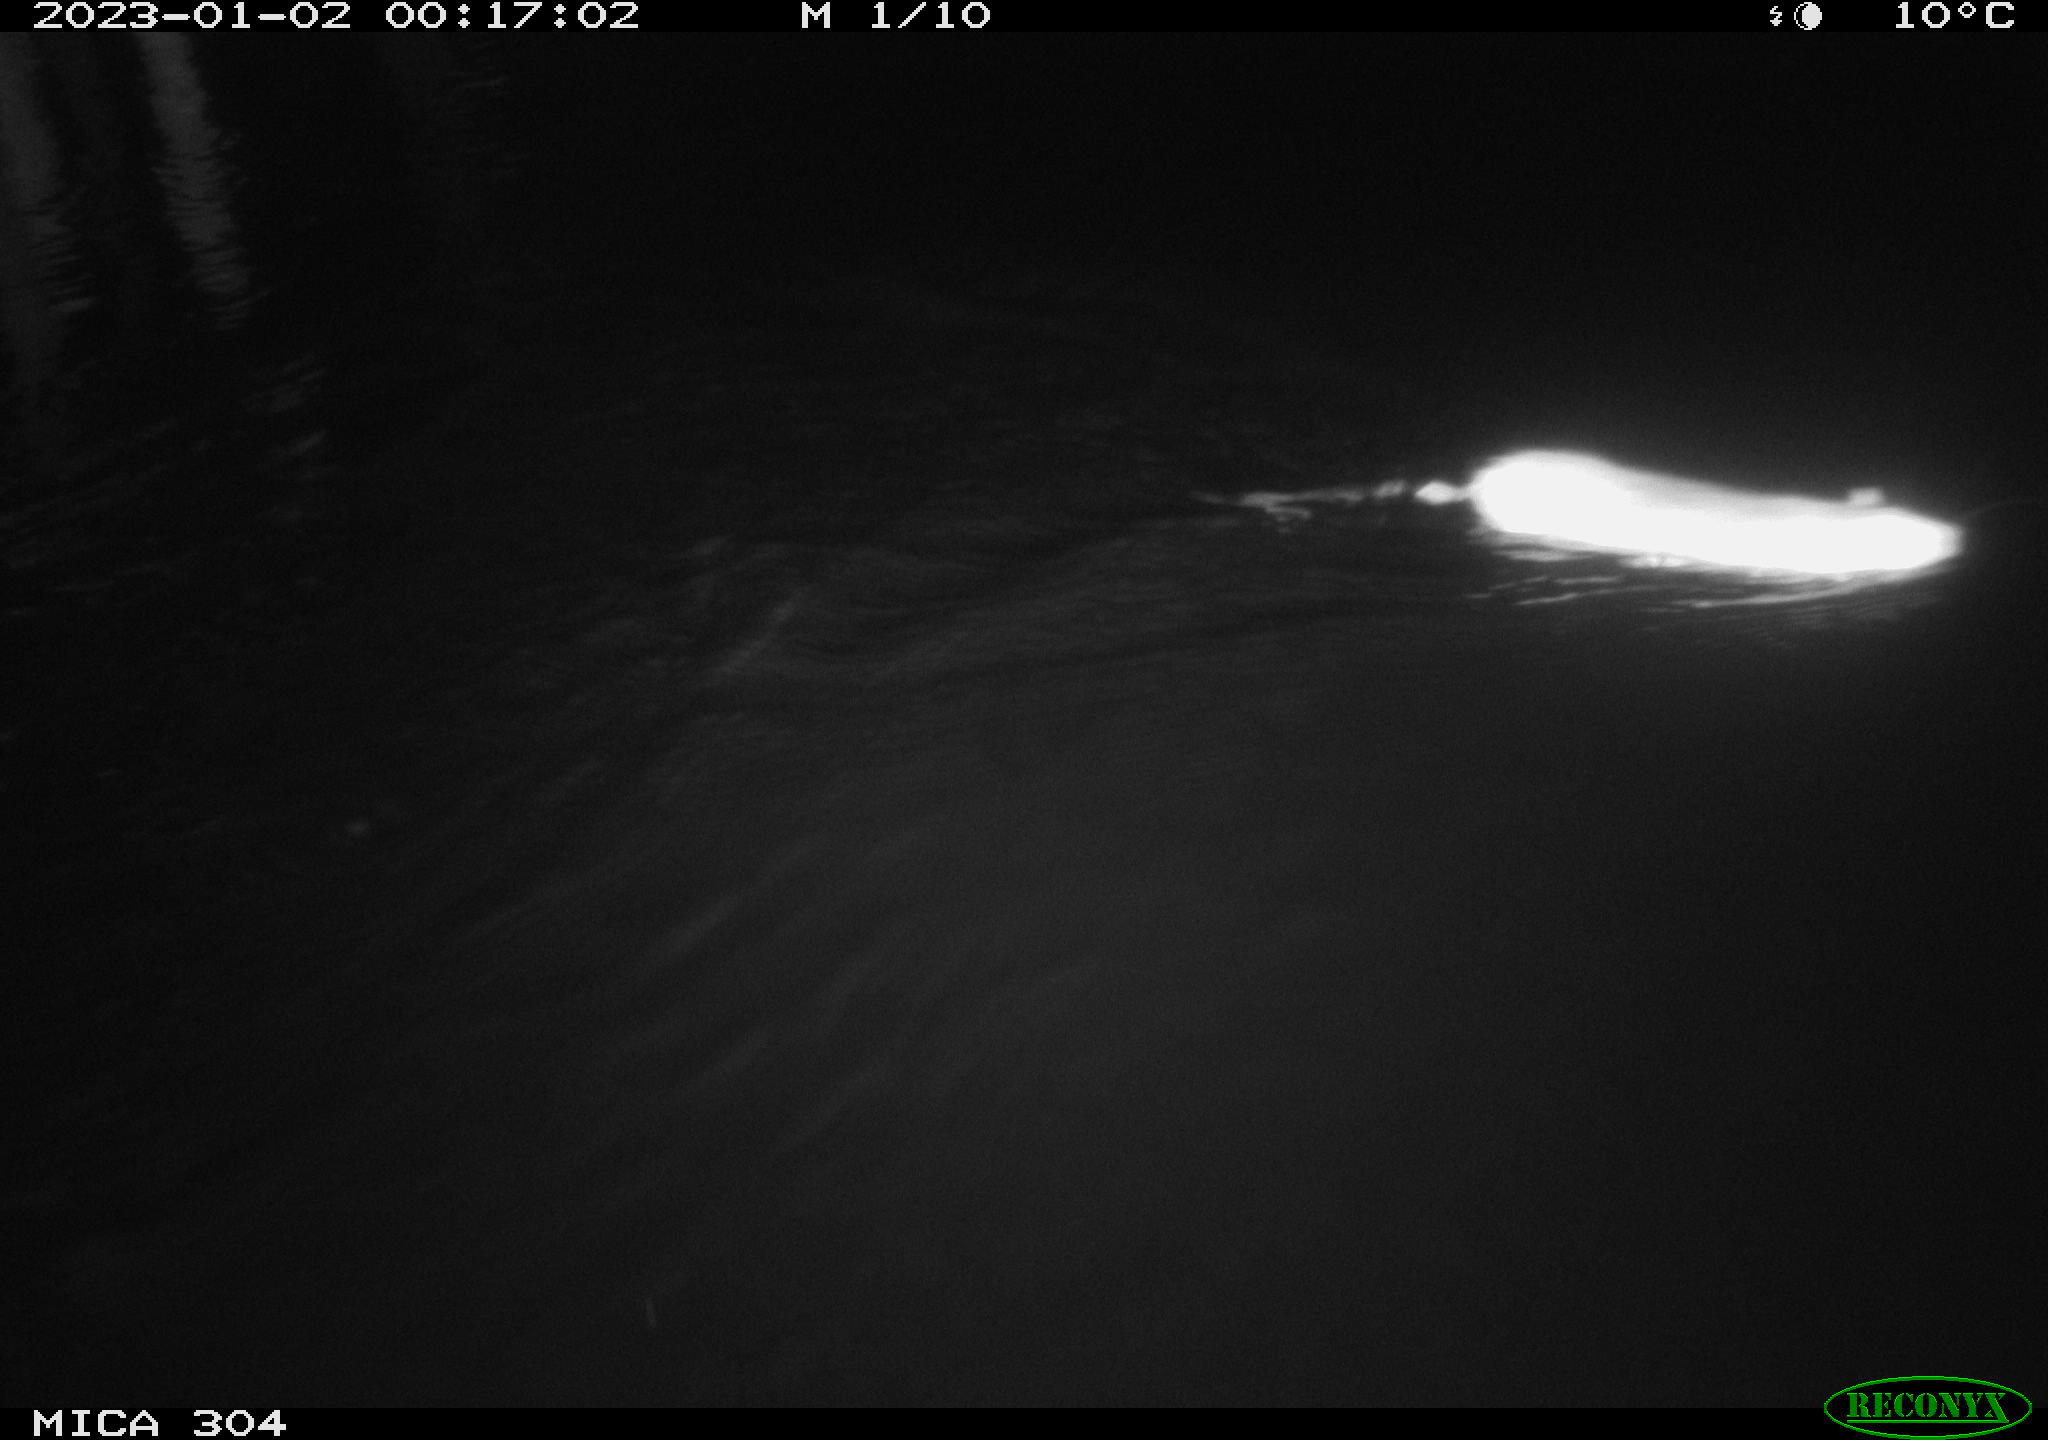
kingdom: Animalia
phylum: Chordata
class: Mammalia
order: Rodentia
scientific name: Rodentia
